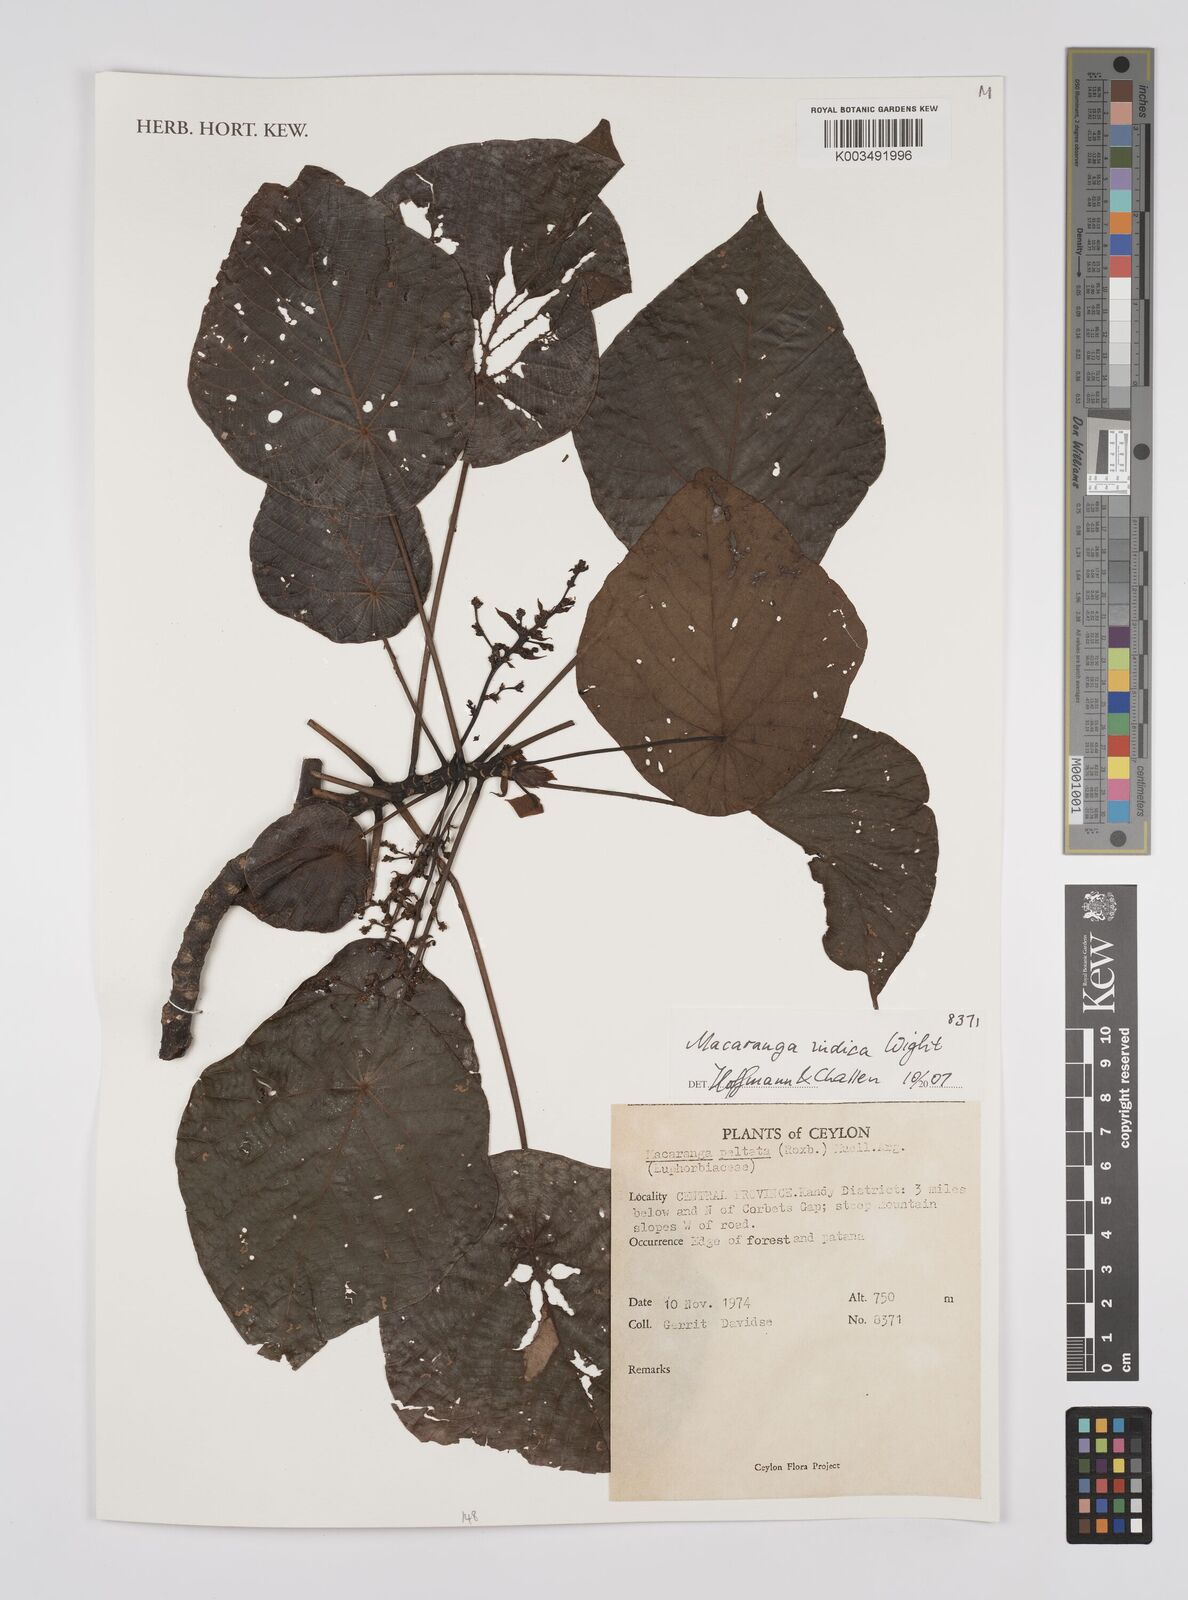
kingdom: Plantae
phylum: Tracheophyta
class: Magnoliopsida
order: Malpighiales
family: Euphorbiaceae
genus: Macaranga
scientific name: Macaranga indica
